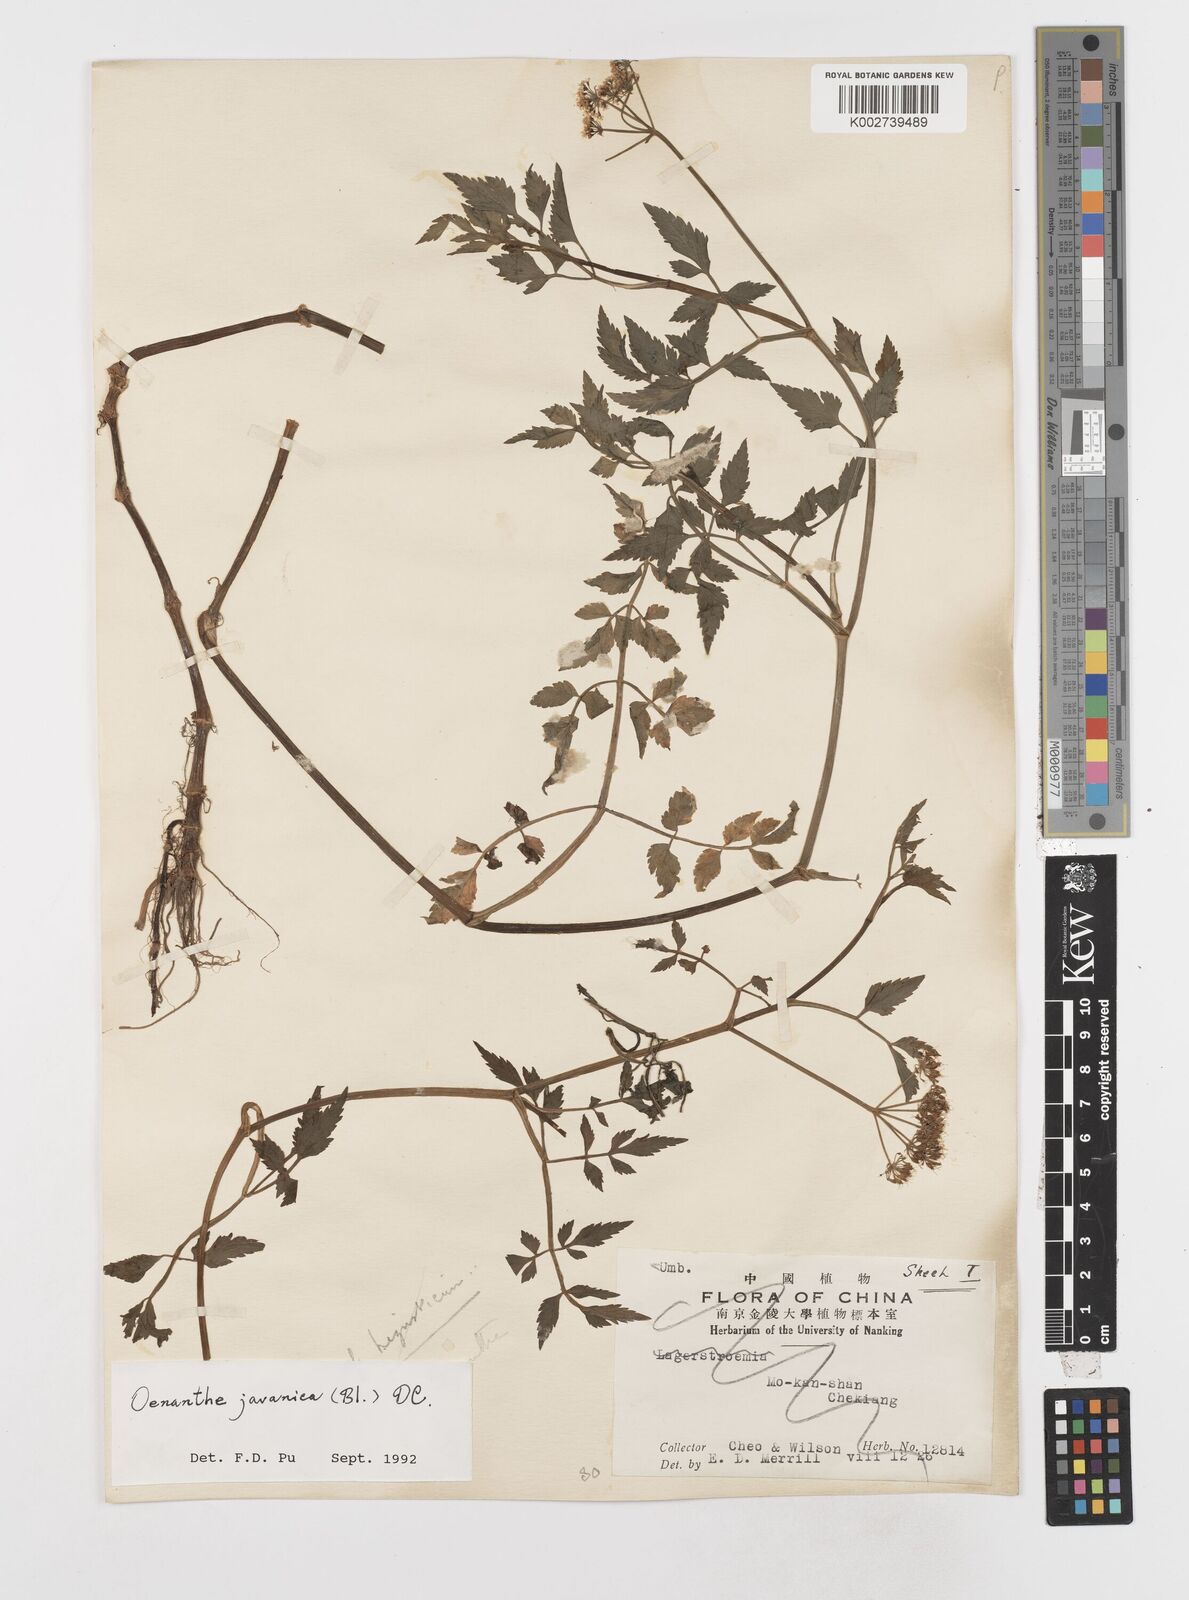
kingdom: Plantae
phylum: Tracheophyta
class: Magnoliopsida
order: Apiales
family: Apiaceae
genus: Oenanthe
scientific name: Oenanthe javanica
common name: Java water-dropwort
